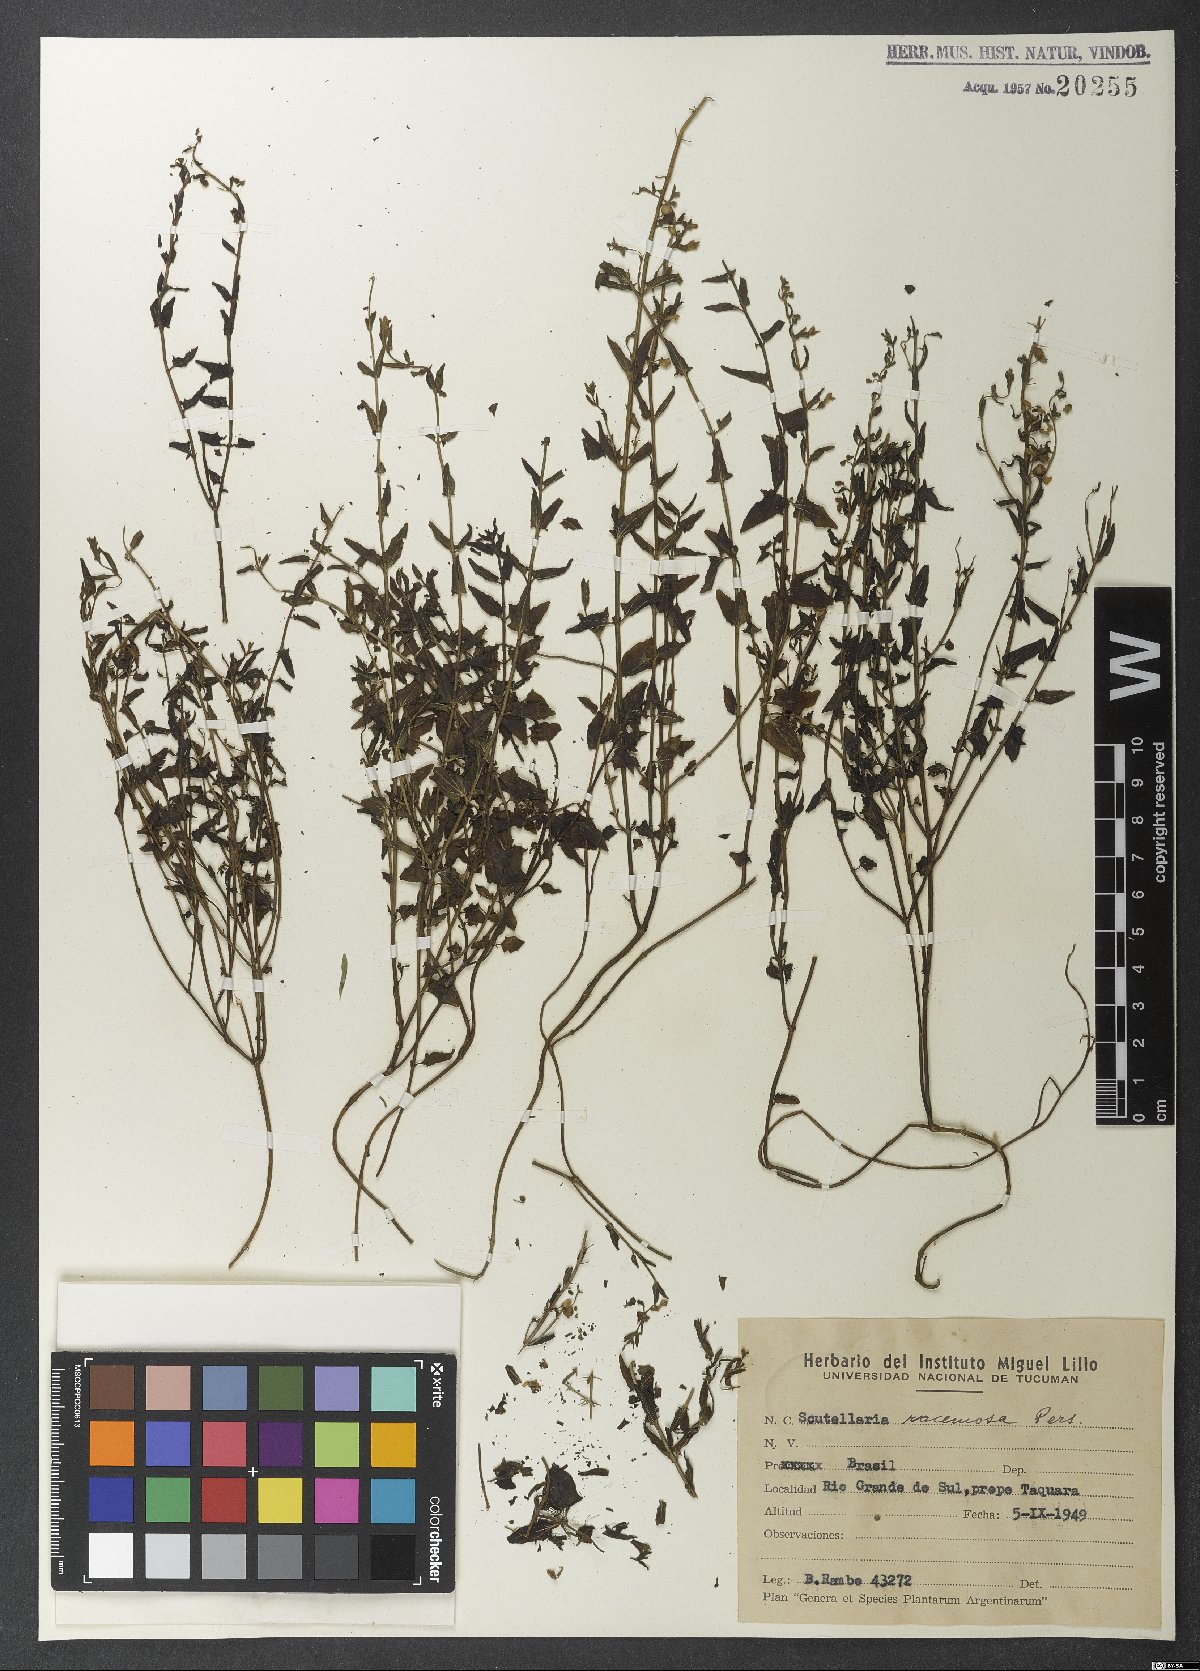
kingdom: Plantae
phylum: Tracheophyta
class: Magnoliopsida
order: Lamiales
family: Lamiaceae
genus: Scutellaria
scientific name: Scutellaria racemosa
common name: South american skullcap
